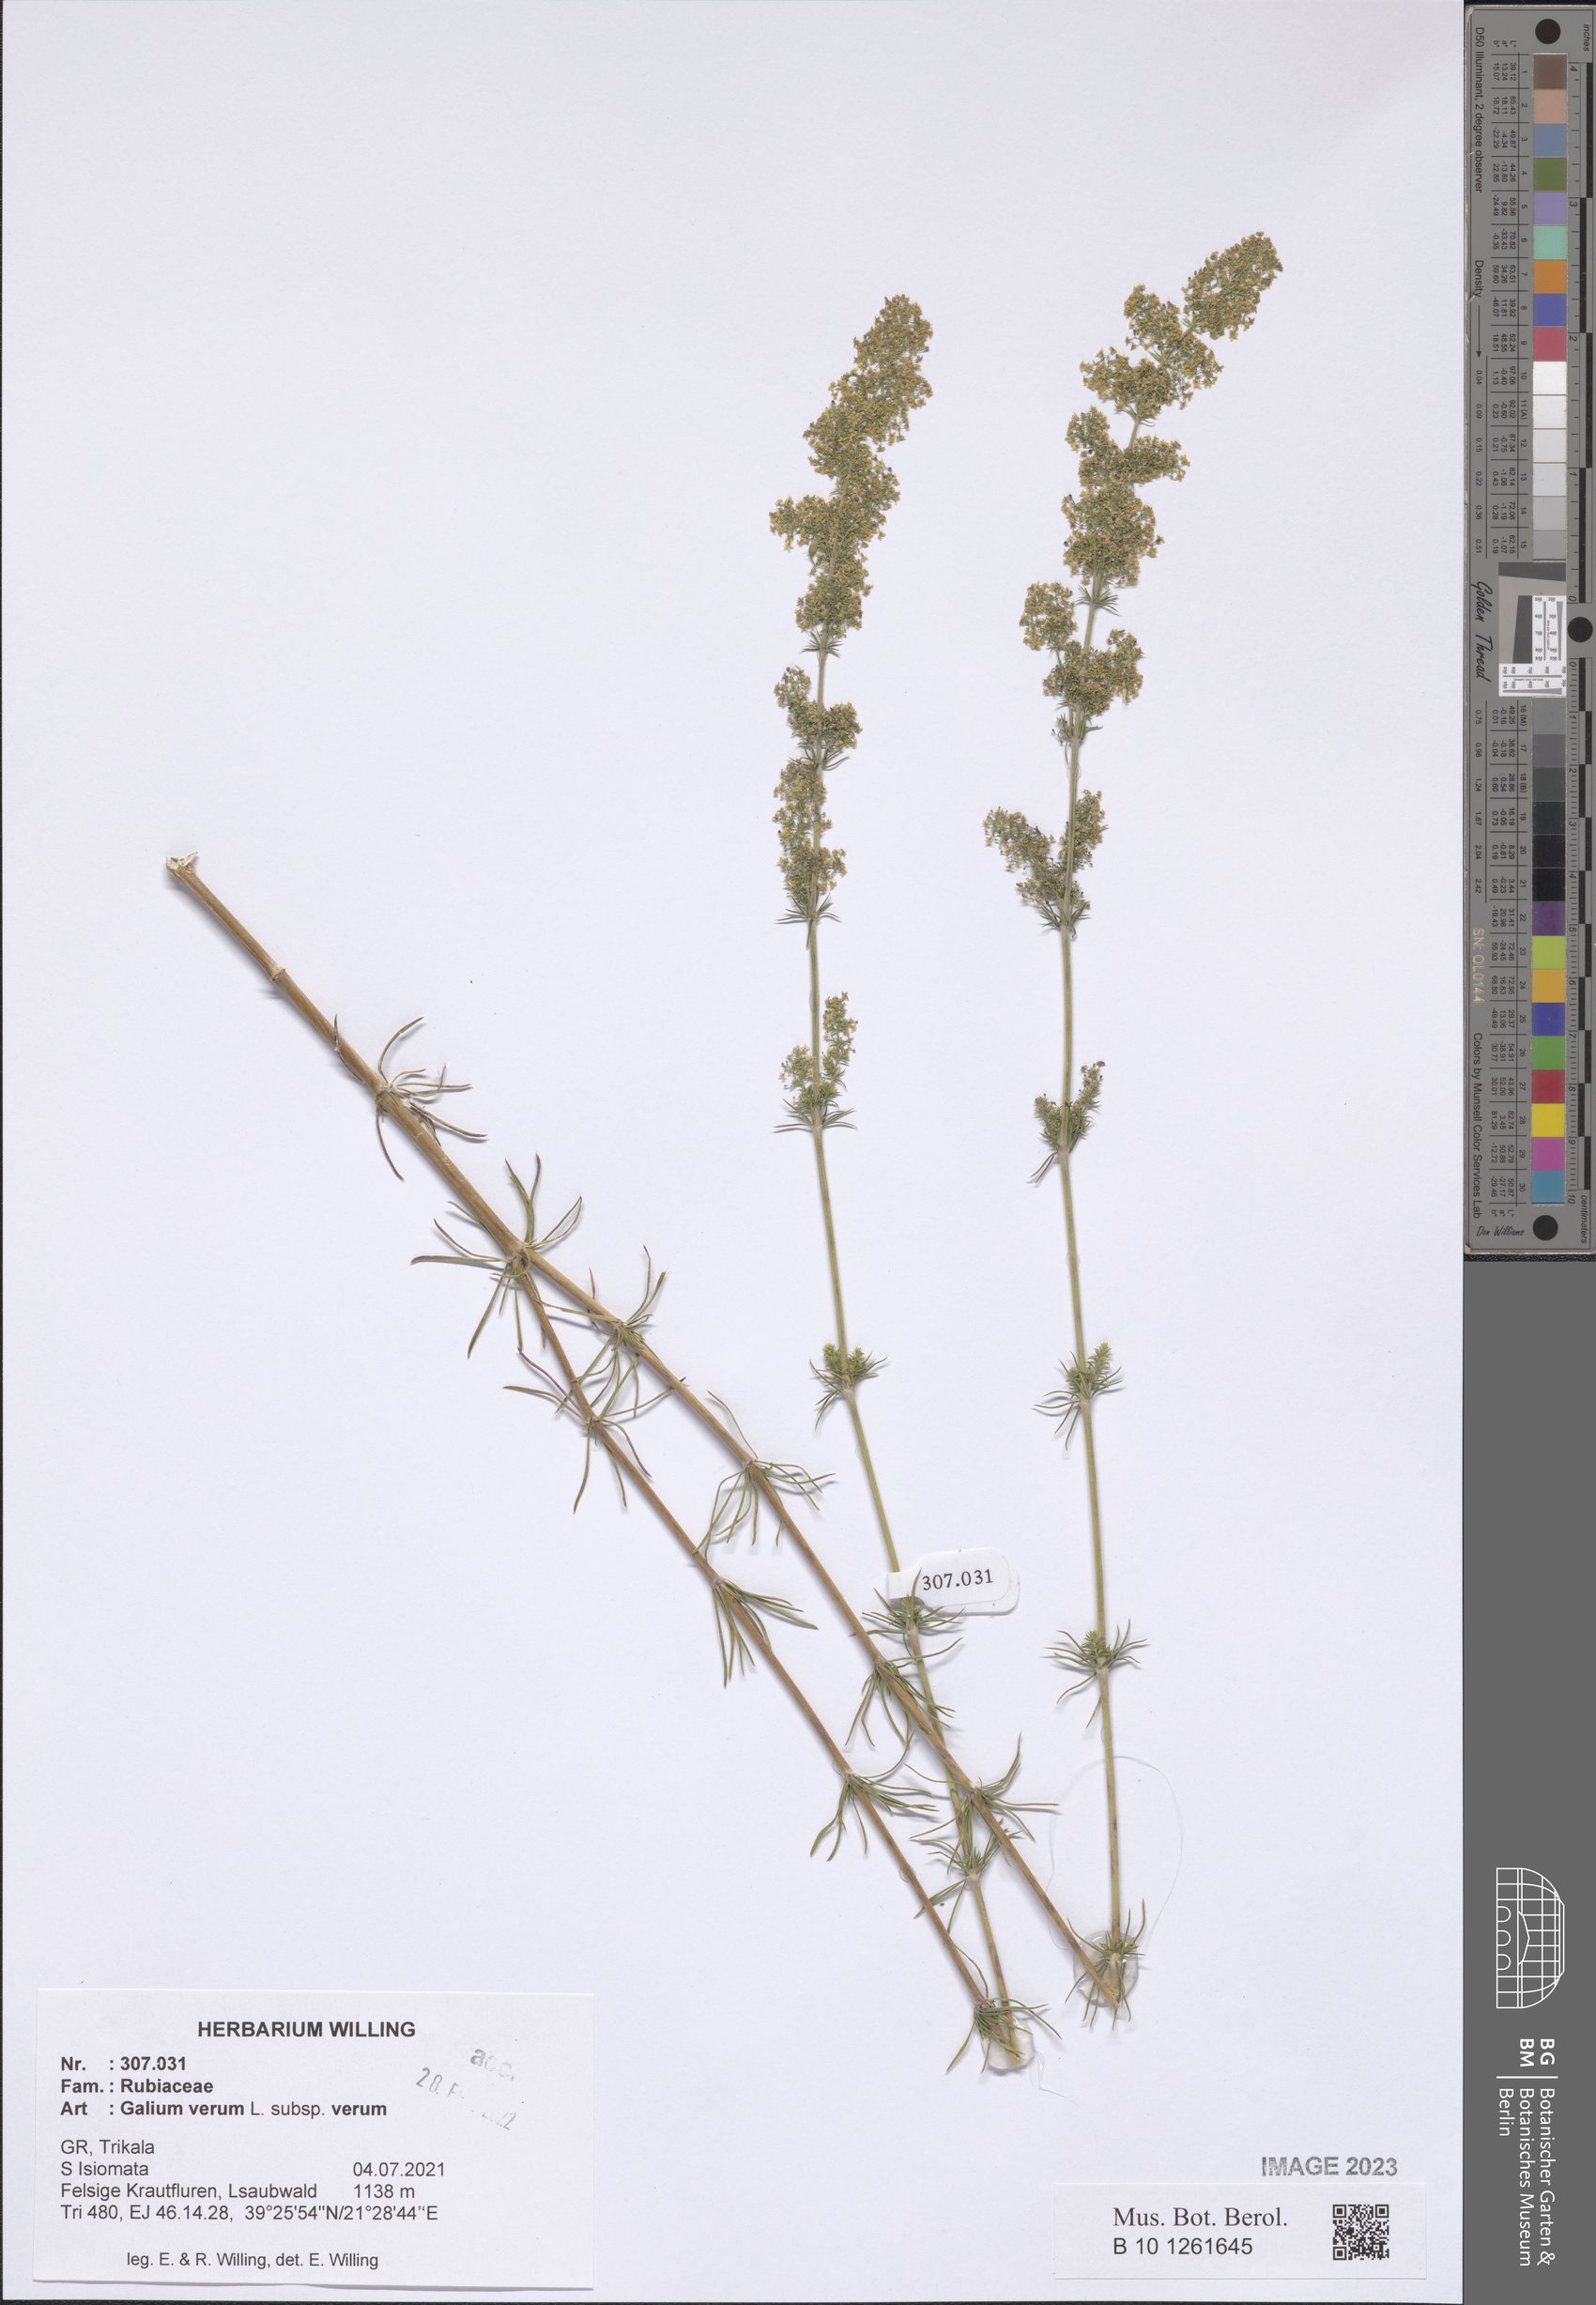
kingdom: Plantae
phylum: Tracheophyta
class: Magnoliopsida
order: Gentianales
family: Rubiaceae
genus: Galium
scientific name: Galium verum
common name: Lady's bedstraw
